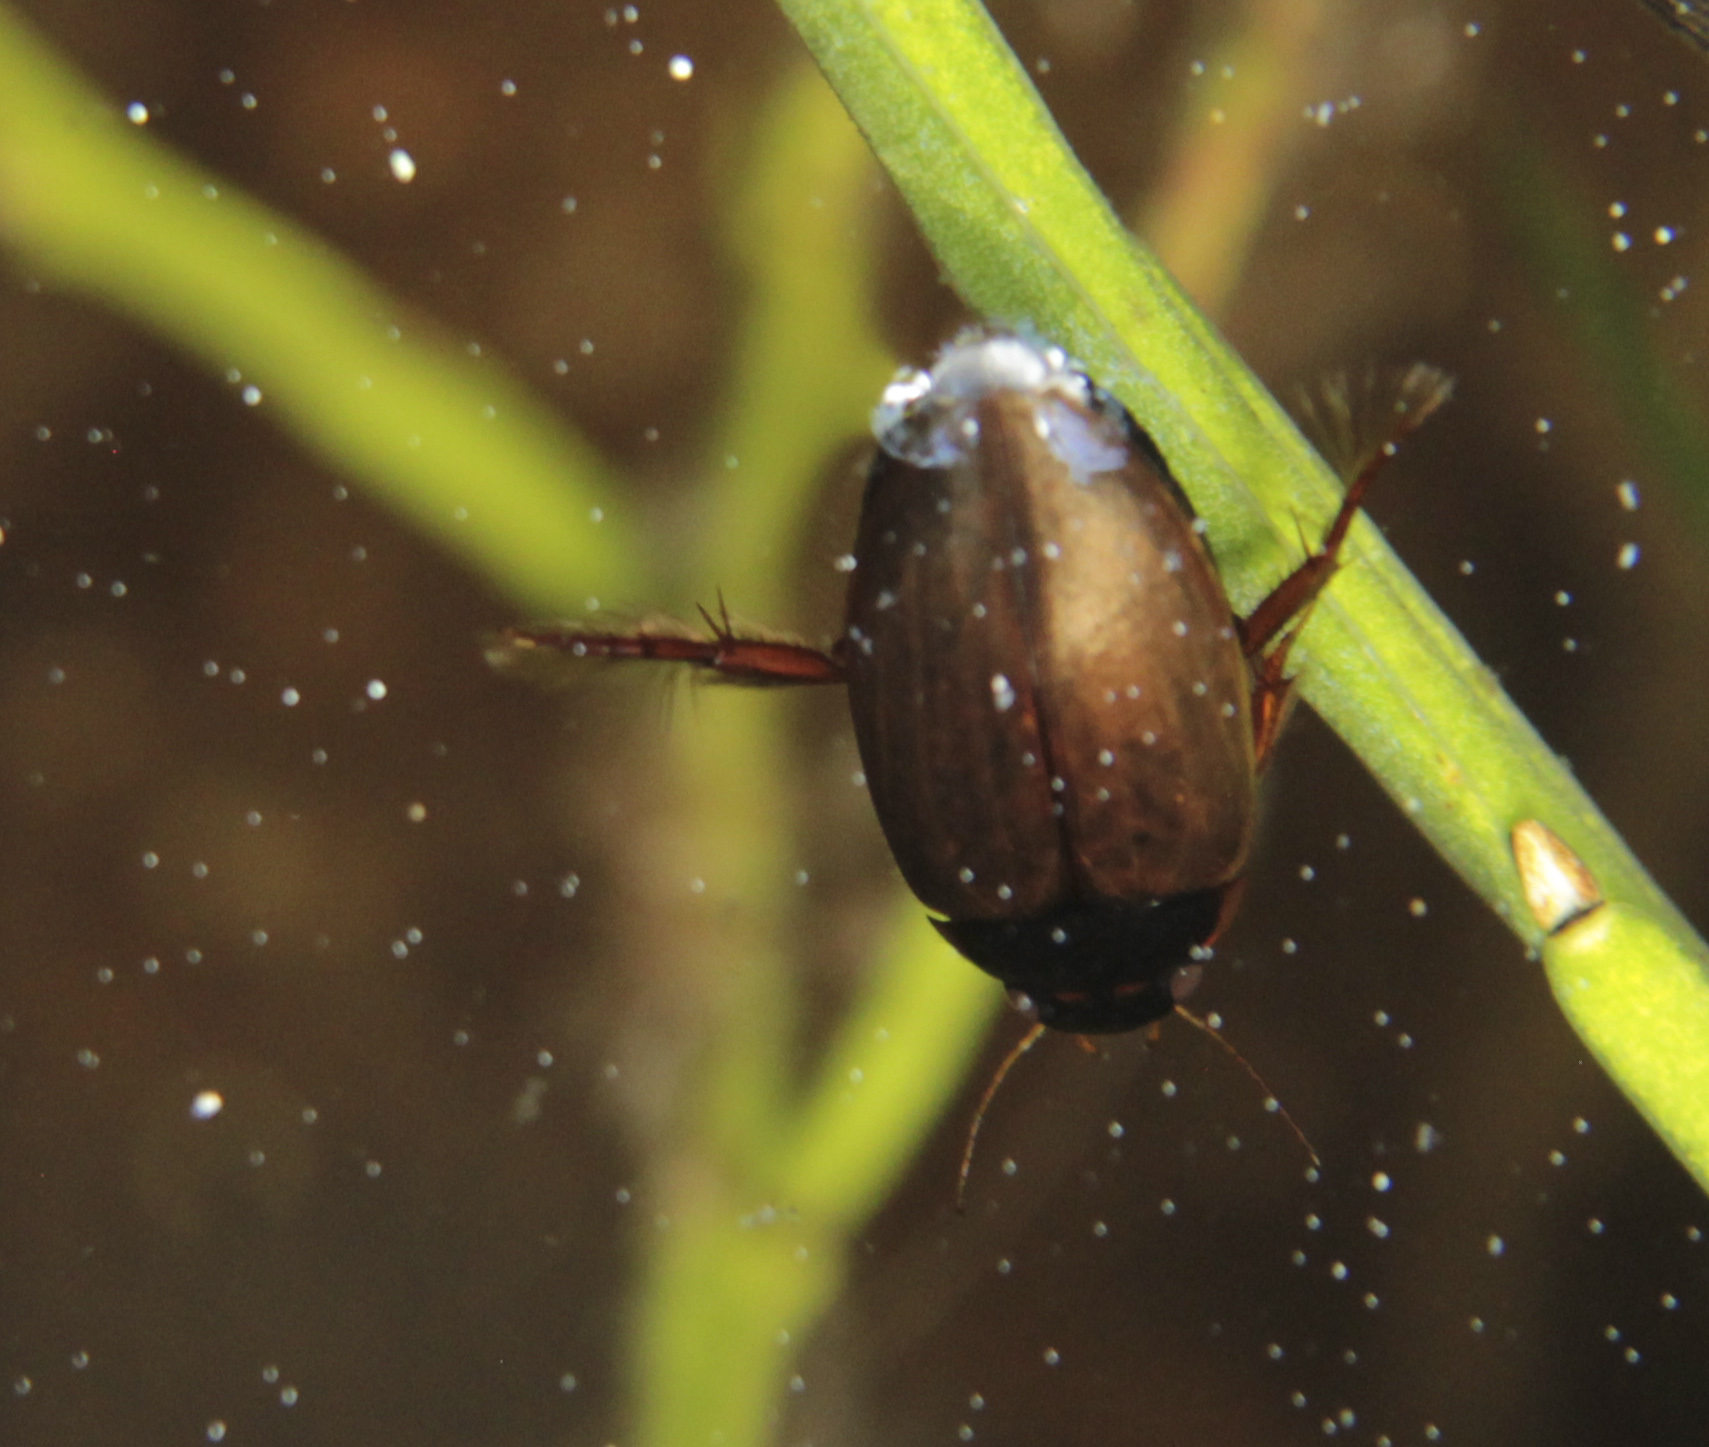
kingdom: Animalia
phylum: Arthropoda
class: Insecta
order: Coleoptera
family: Dytiscidae
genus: Agabus
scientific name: Agabus
